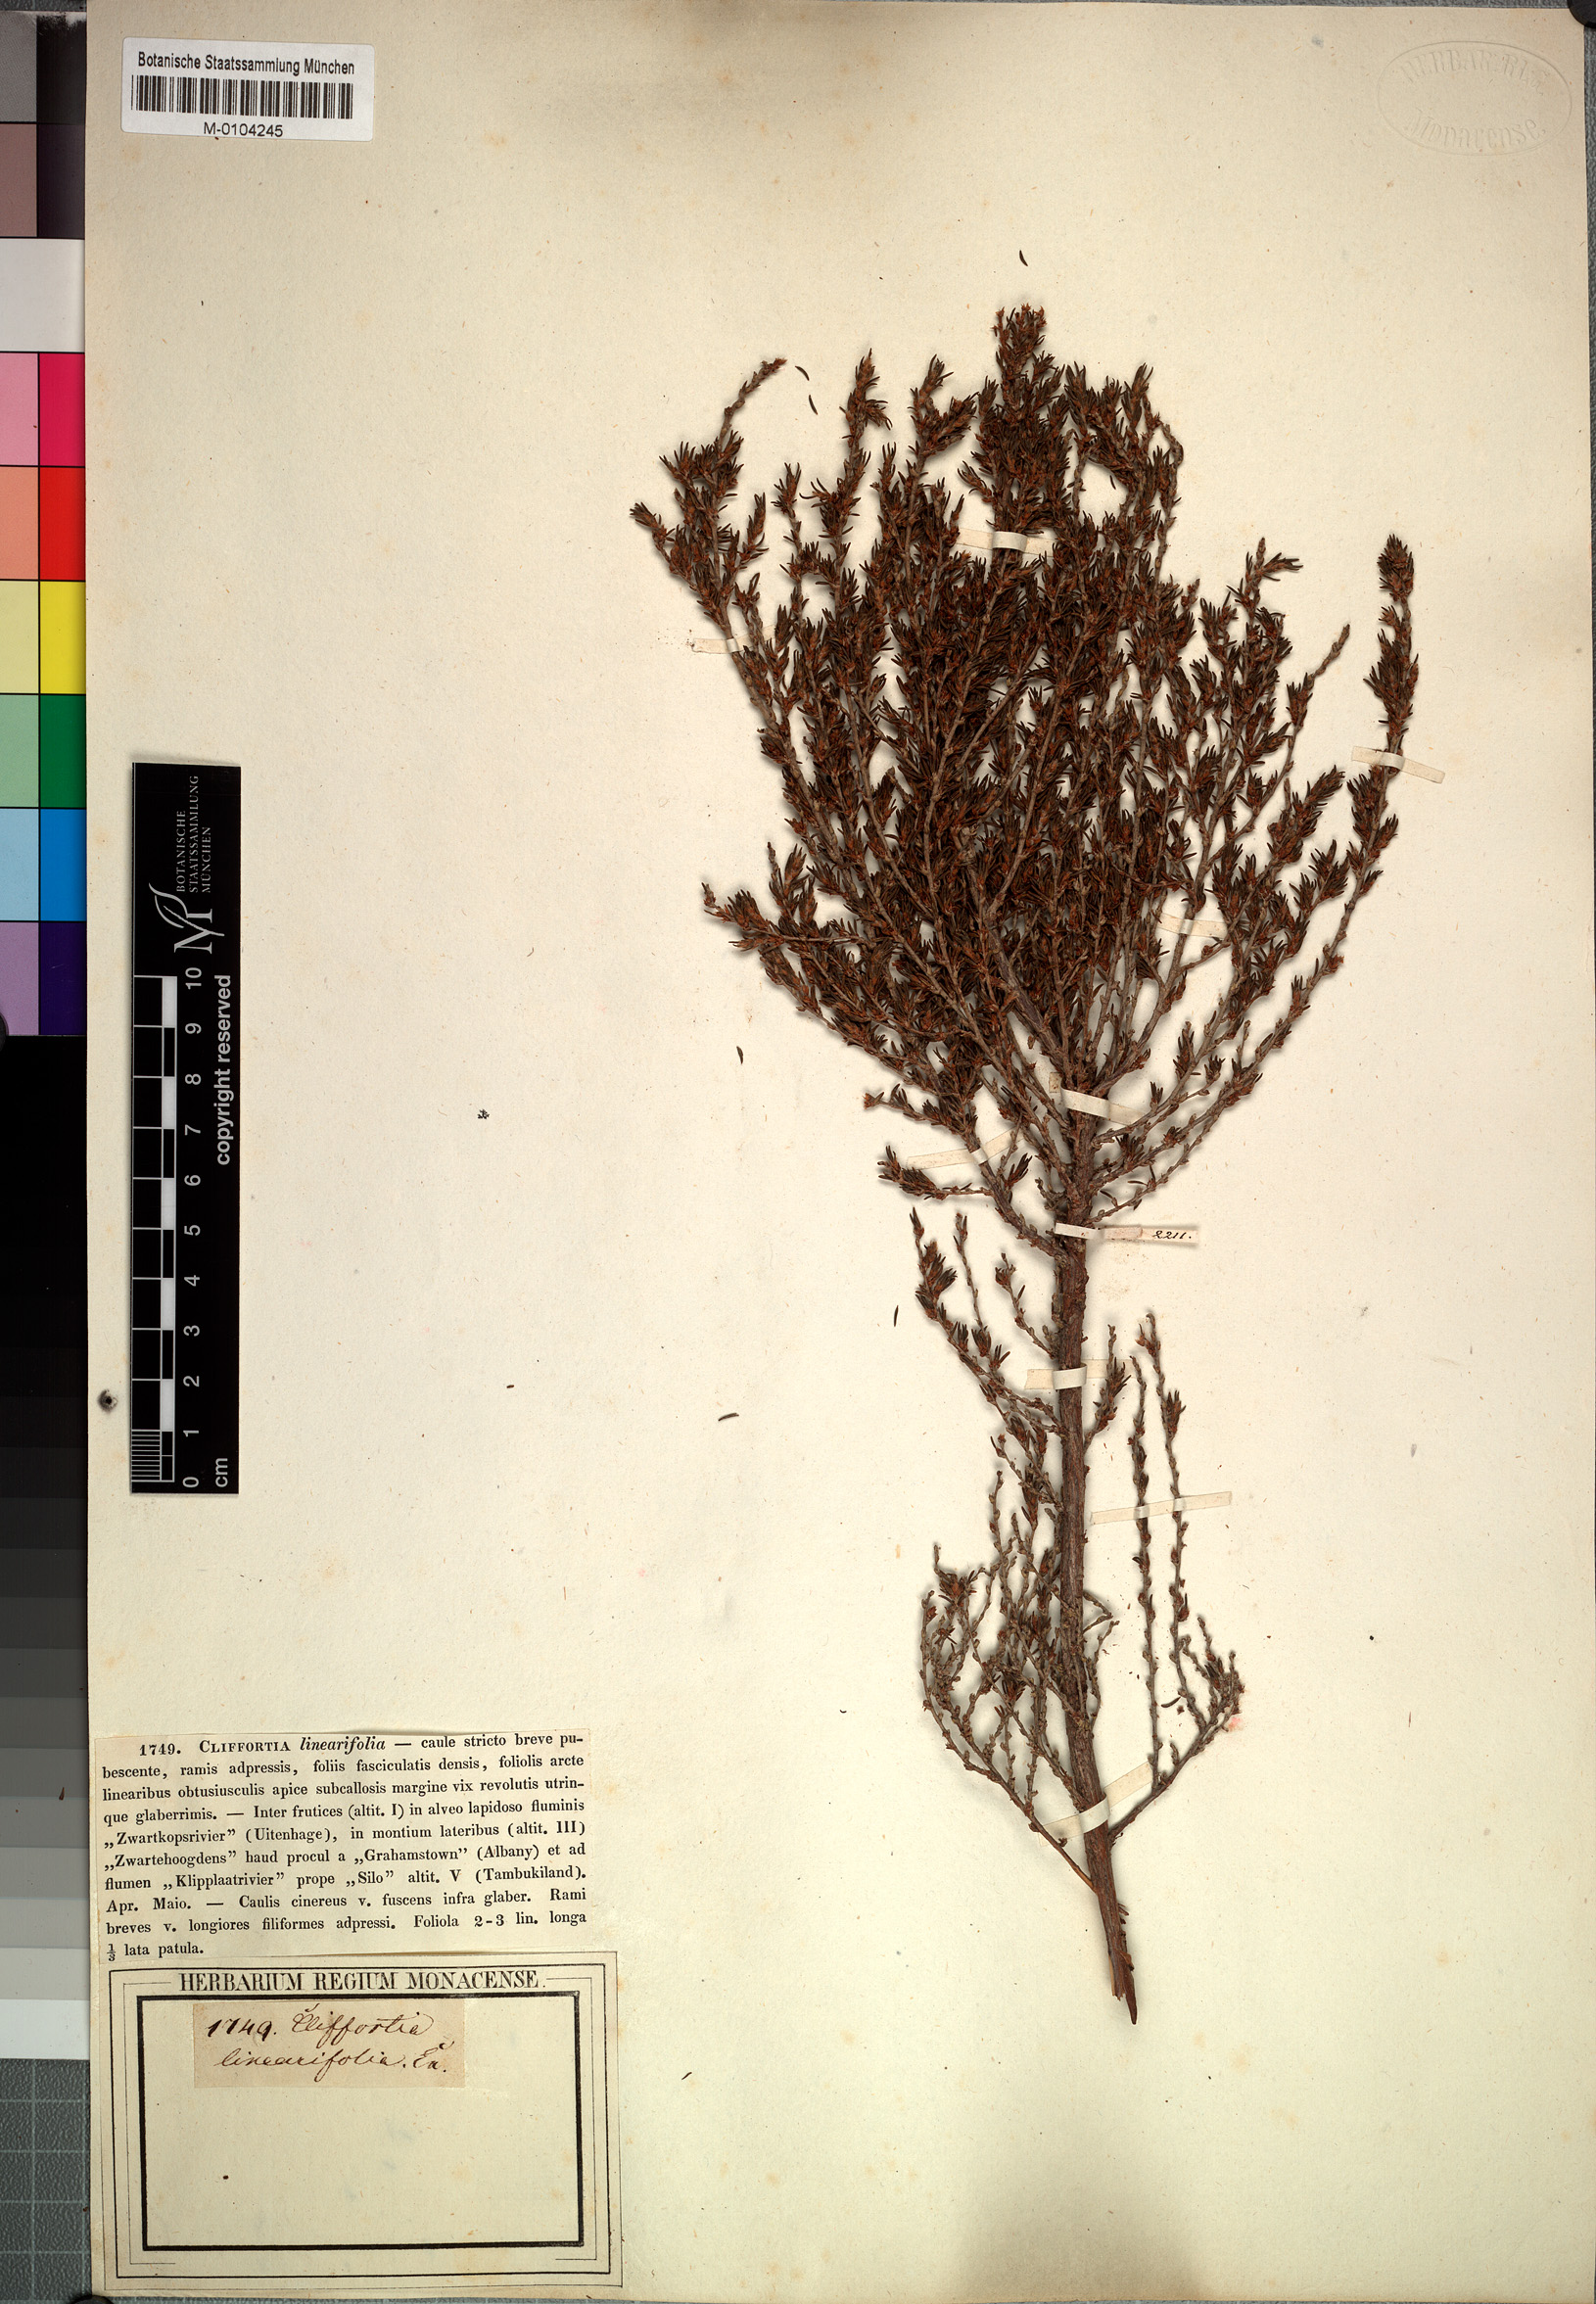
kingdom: Plantae
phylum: Tracheophyta
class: Magnoliopsida
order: Rosales
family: Rosaceae
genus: Cliffortia
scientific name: Cliffortia linearifolia
